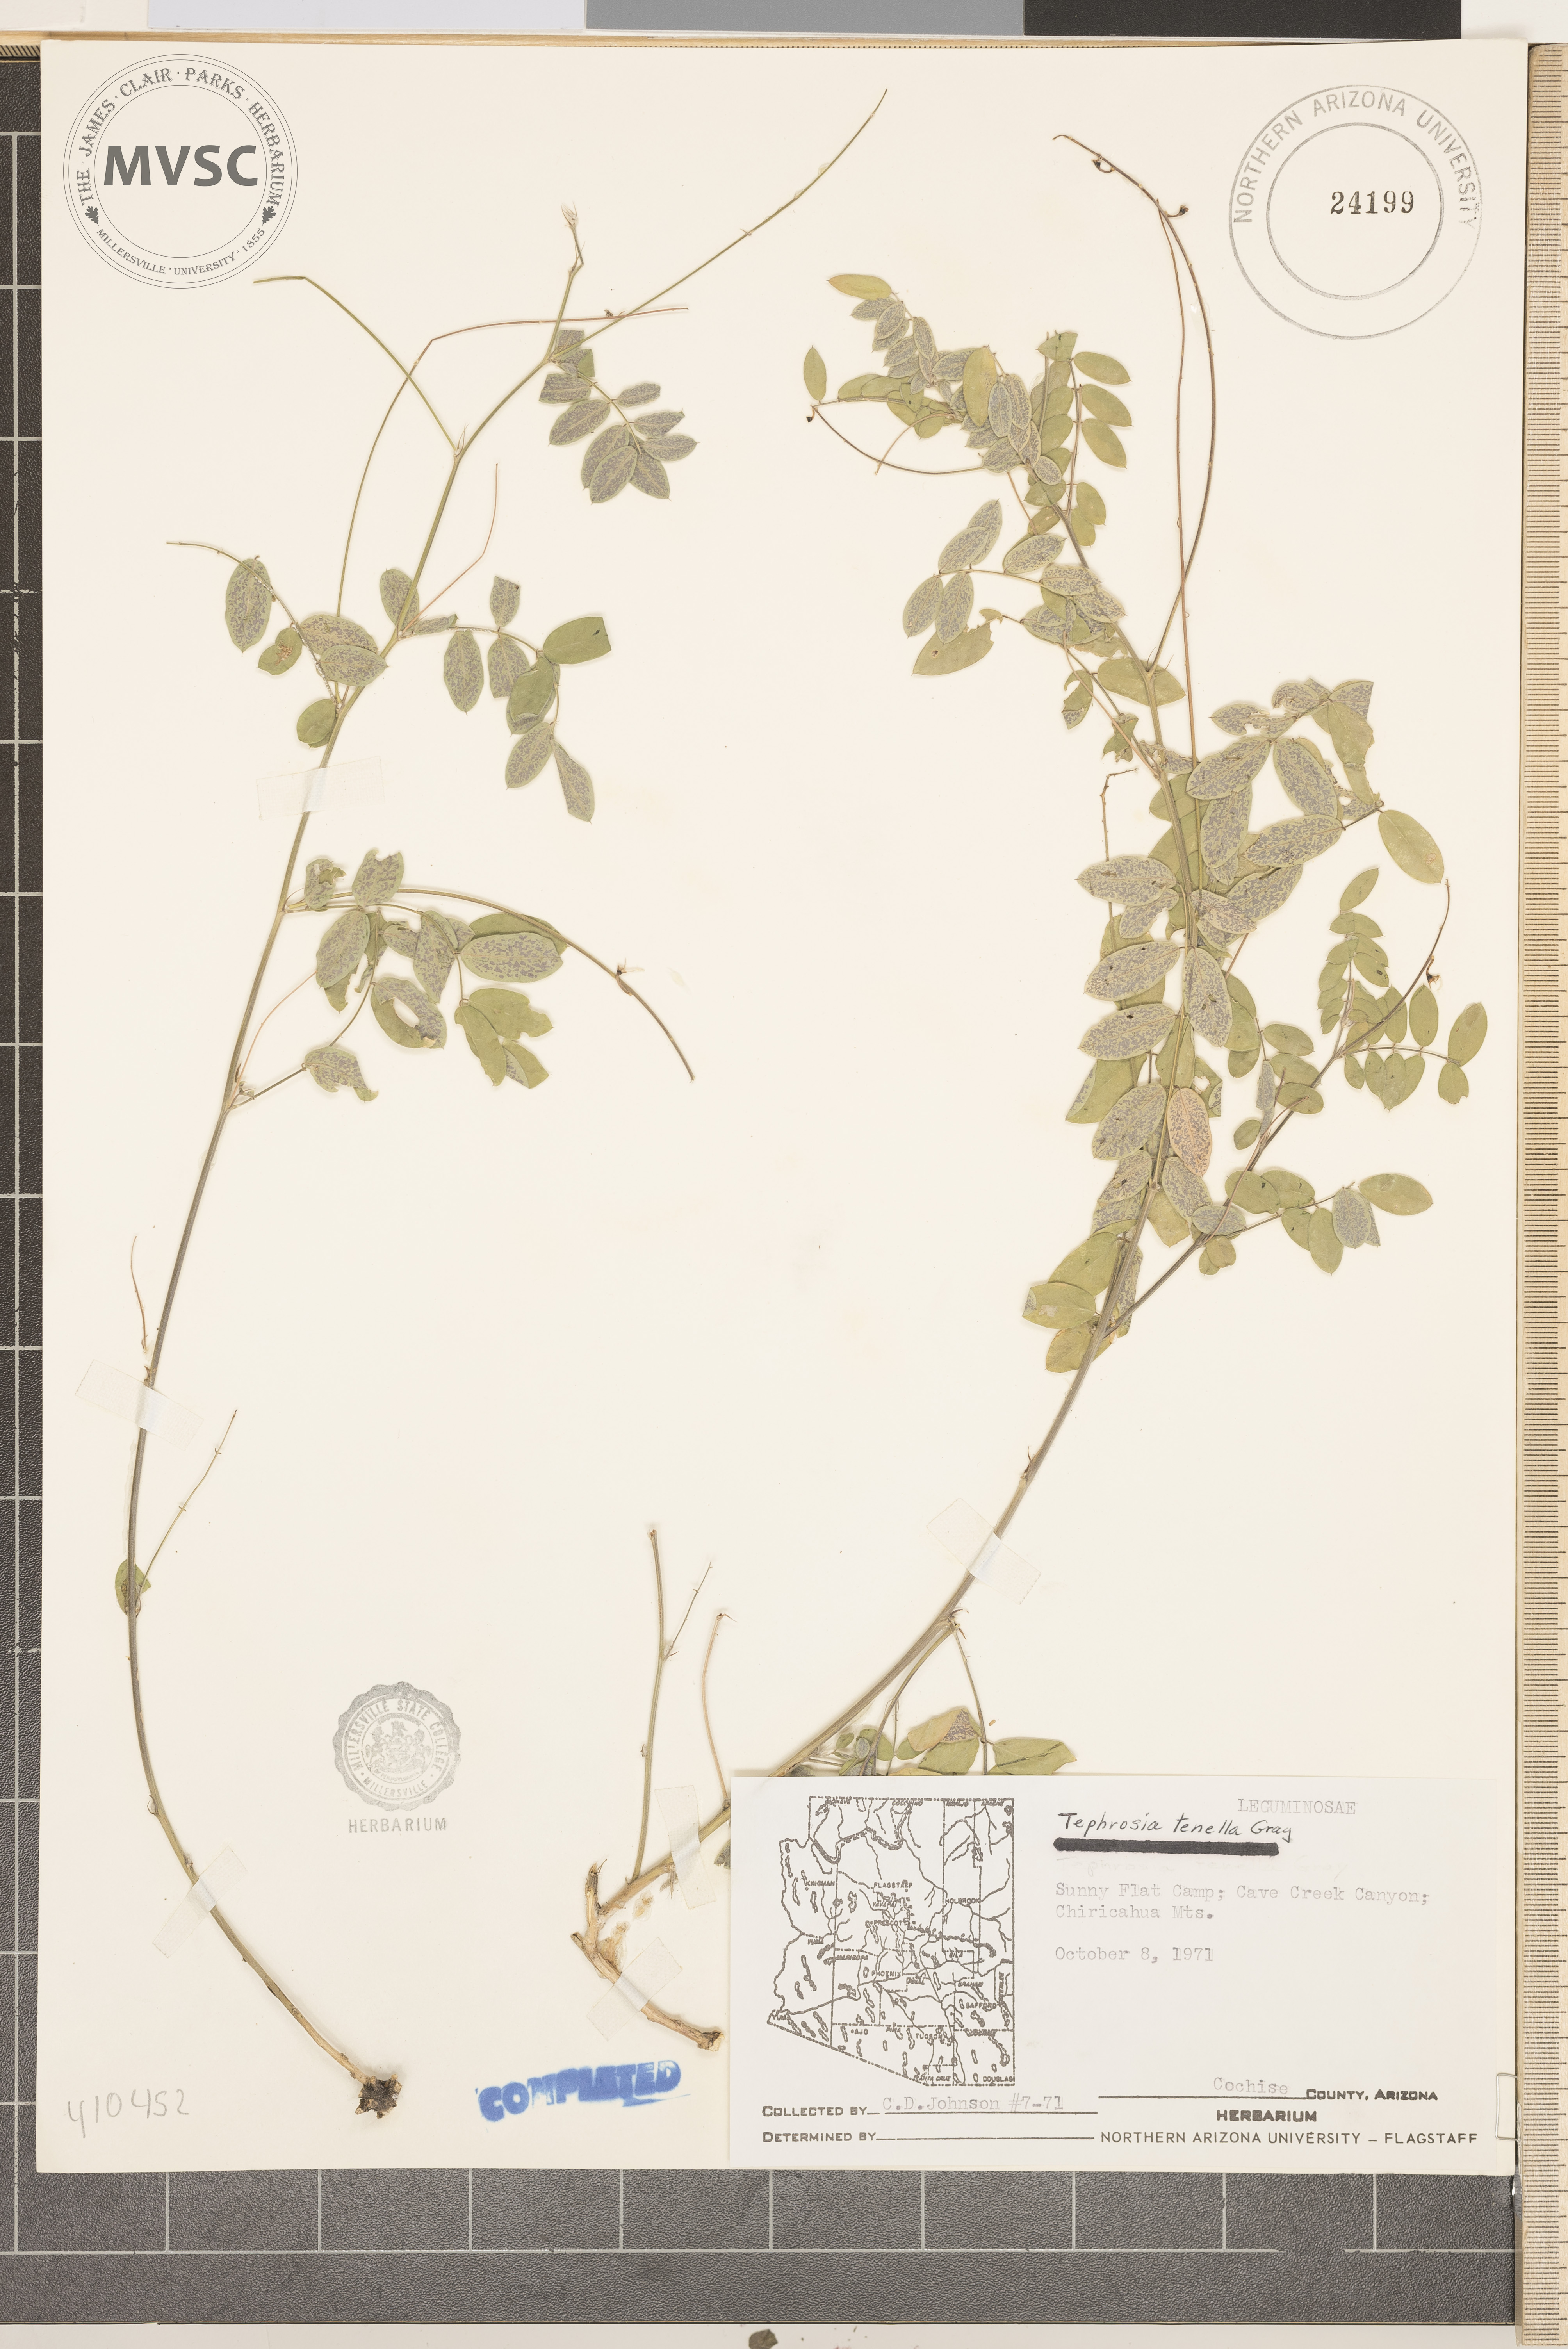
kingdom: Plantae
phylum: Tracheophyta
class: Magnoliopsida
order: Fabales
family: Fabaceae
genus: Tephrosia
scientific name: Tephrosia domingensis
